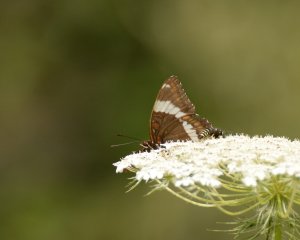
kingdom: Animalia
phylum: Arthropoda
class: Insecta
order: Lepidoptera
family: Nymphalidae
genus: Limenitis
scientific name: Limenitis arthemis
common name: Red-spotted Admiral
